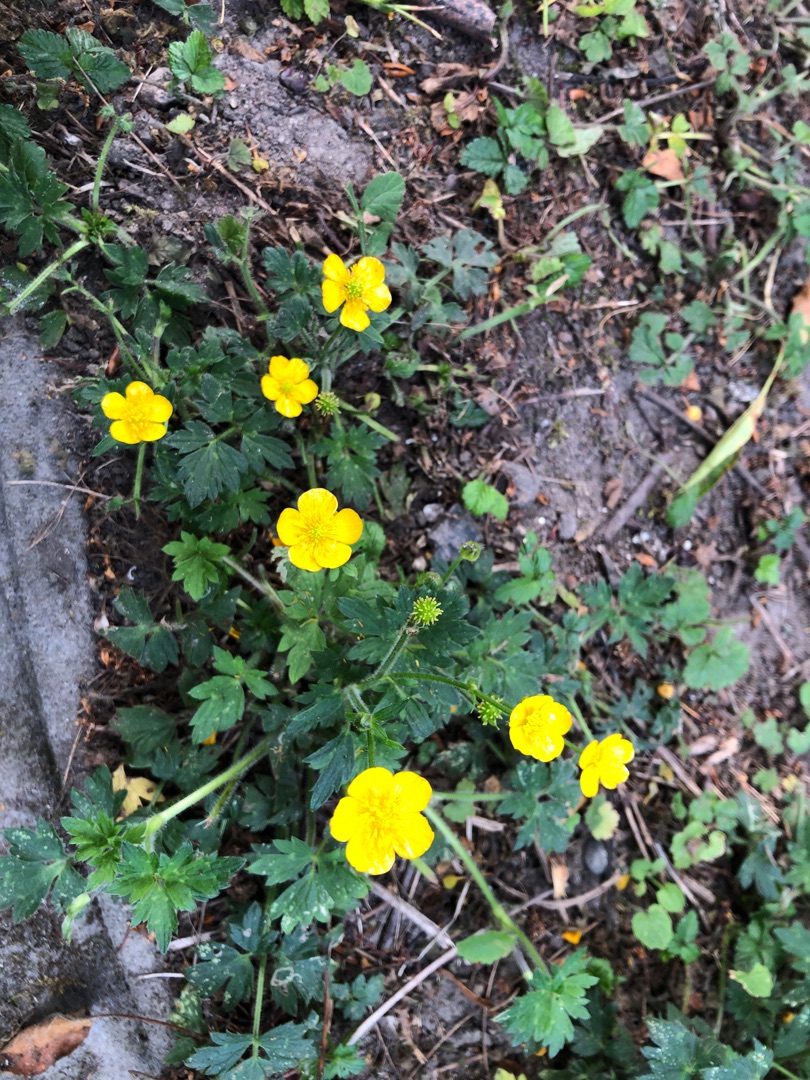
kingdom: Plantae
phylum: Tracheophyta
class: Magnoliopsida
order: Ranunculales
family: Ranunculaceae
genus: Ranunculus
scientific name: Ranunculus repens
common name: Lav ranunkel
